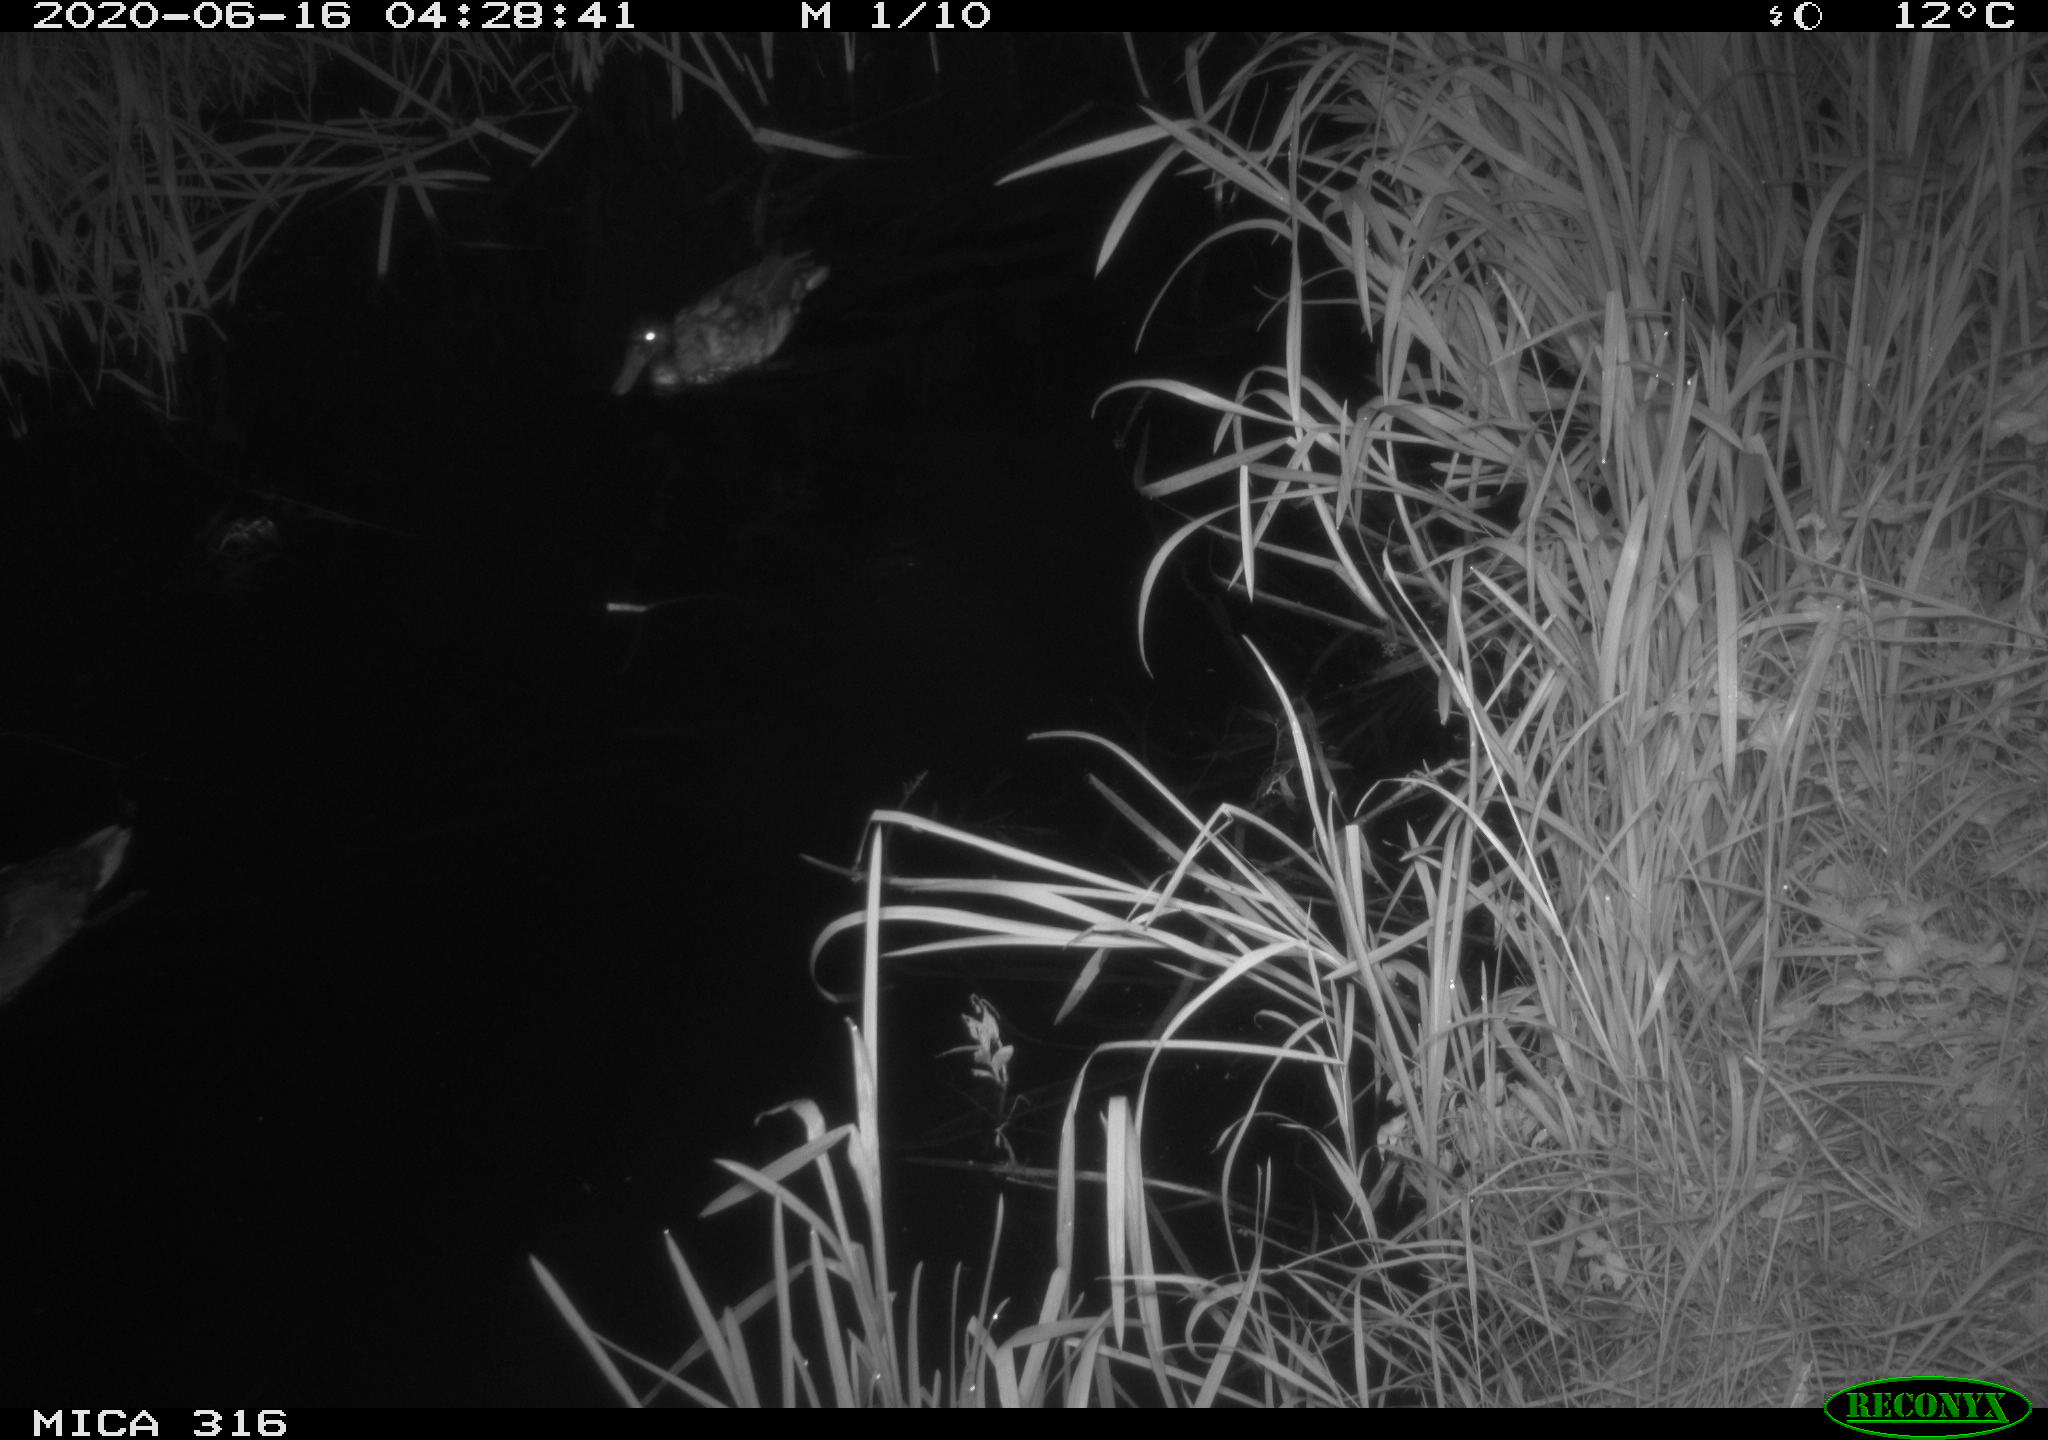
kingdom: Animalia
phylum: Chordata
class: Aves
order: Anseriformes
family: Anatidae
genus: Anas
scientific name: Anas platyrhynchos
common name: Mallard
